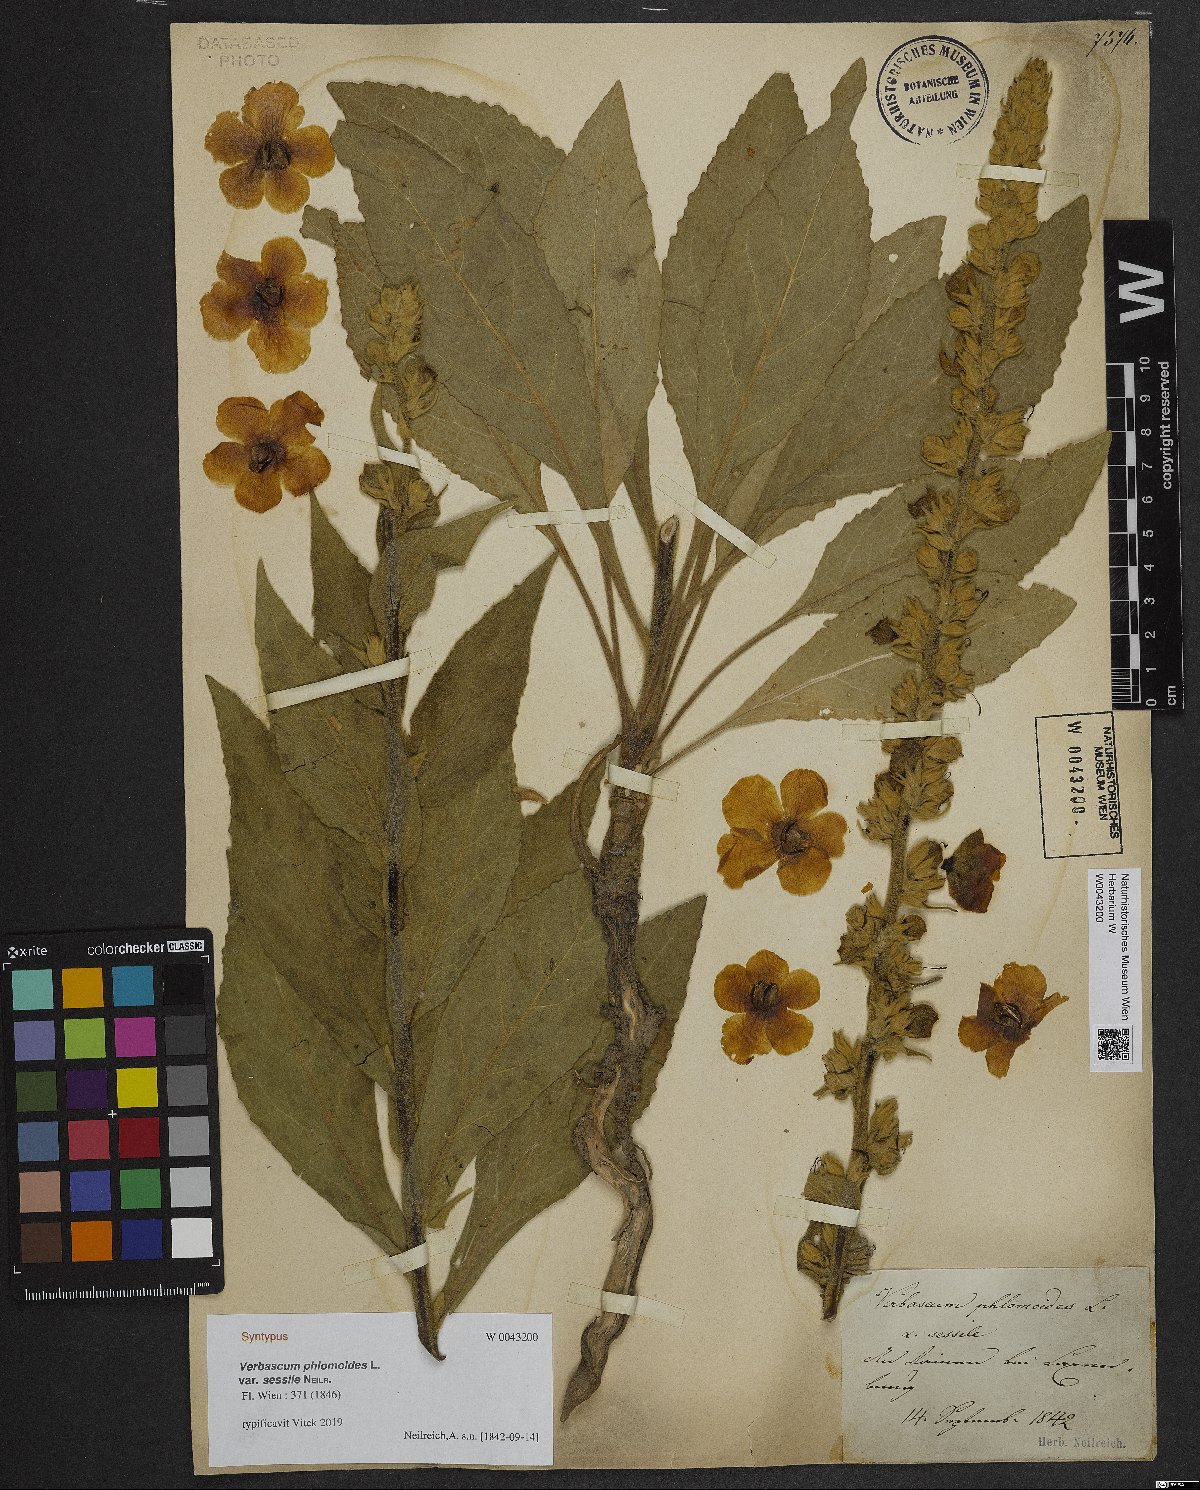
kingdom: Plantae
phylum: Tracheophyta
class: Magnoliopsida
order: Lamiales
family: Scrophulariaceae
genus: Verbascum
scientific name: Verbascum phlomoides
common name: Orange mullein
